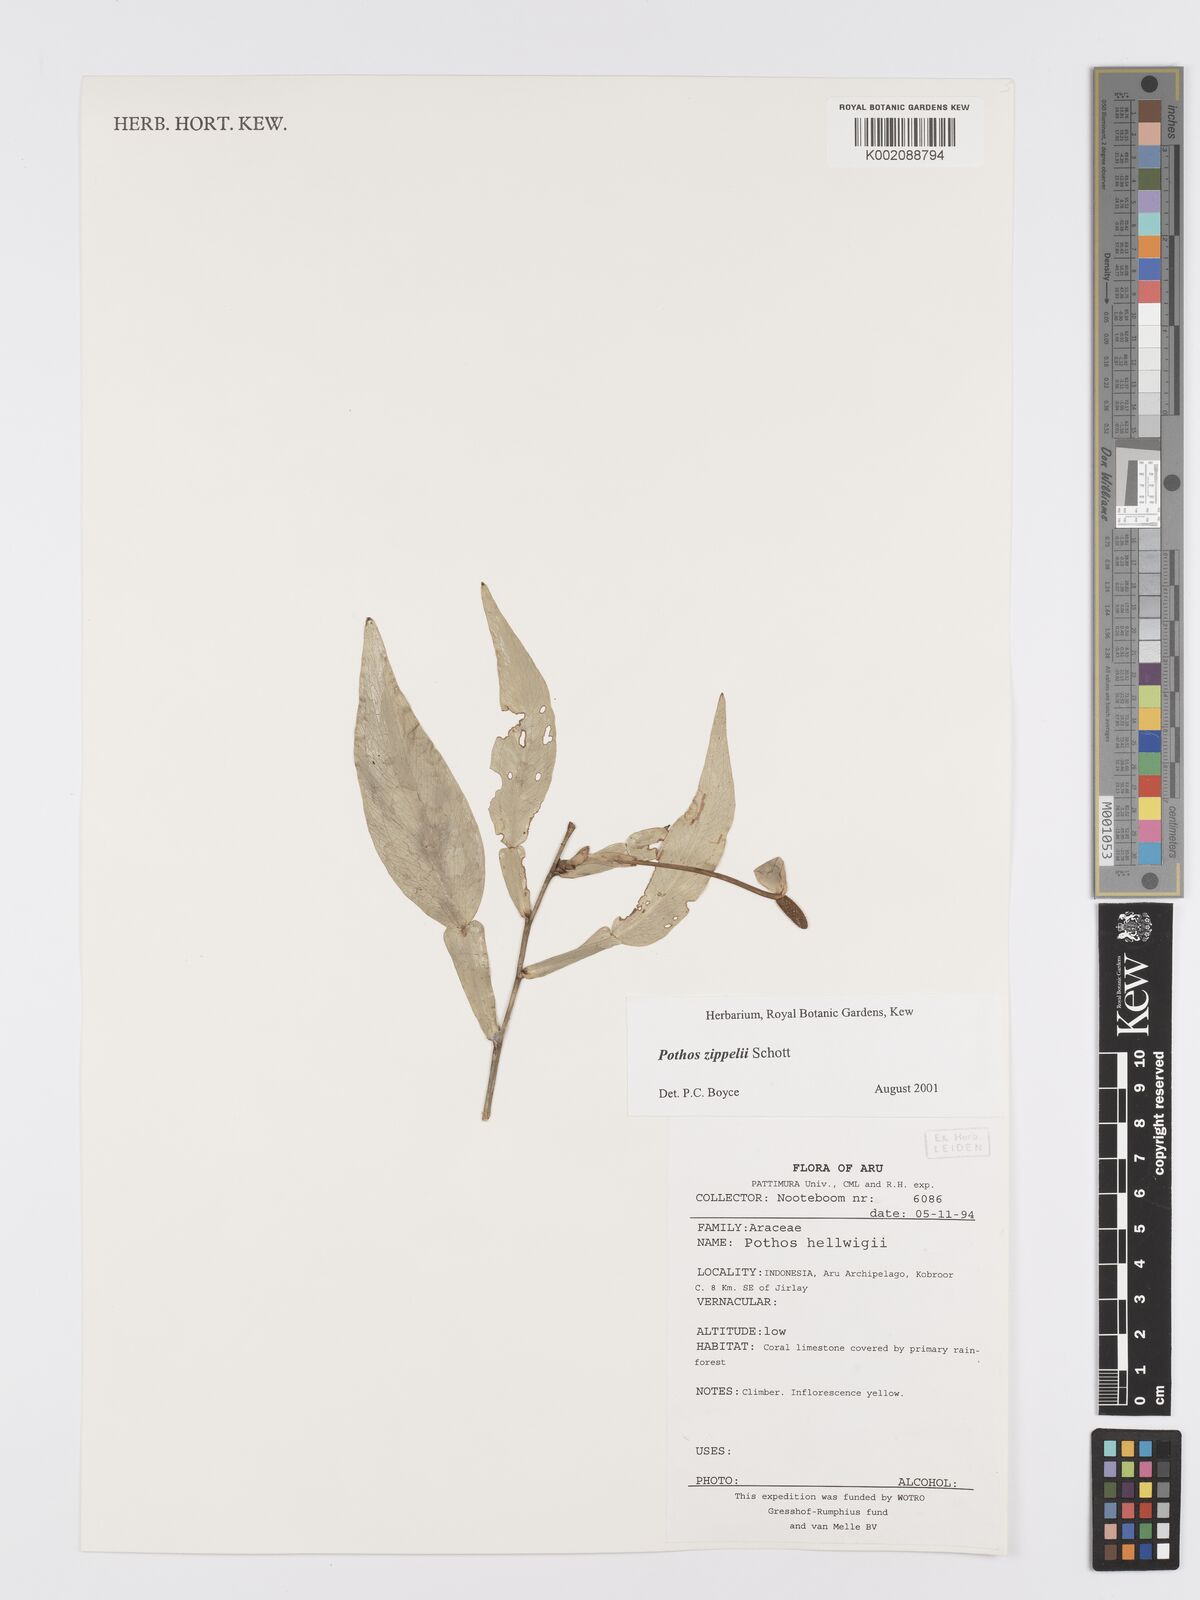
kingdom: Plantae
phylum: Tracheophyta
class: Liliopsida
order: Alismatales
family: Araceae
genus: Pothos
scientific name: Pothos zippelii
